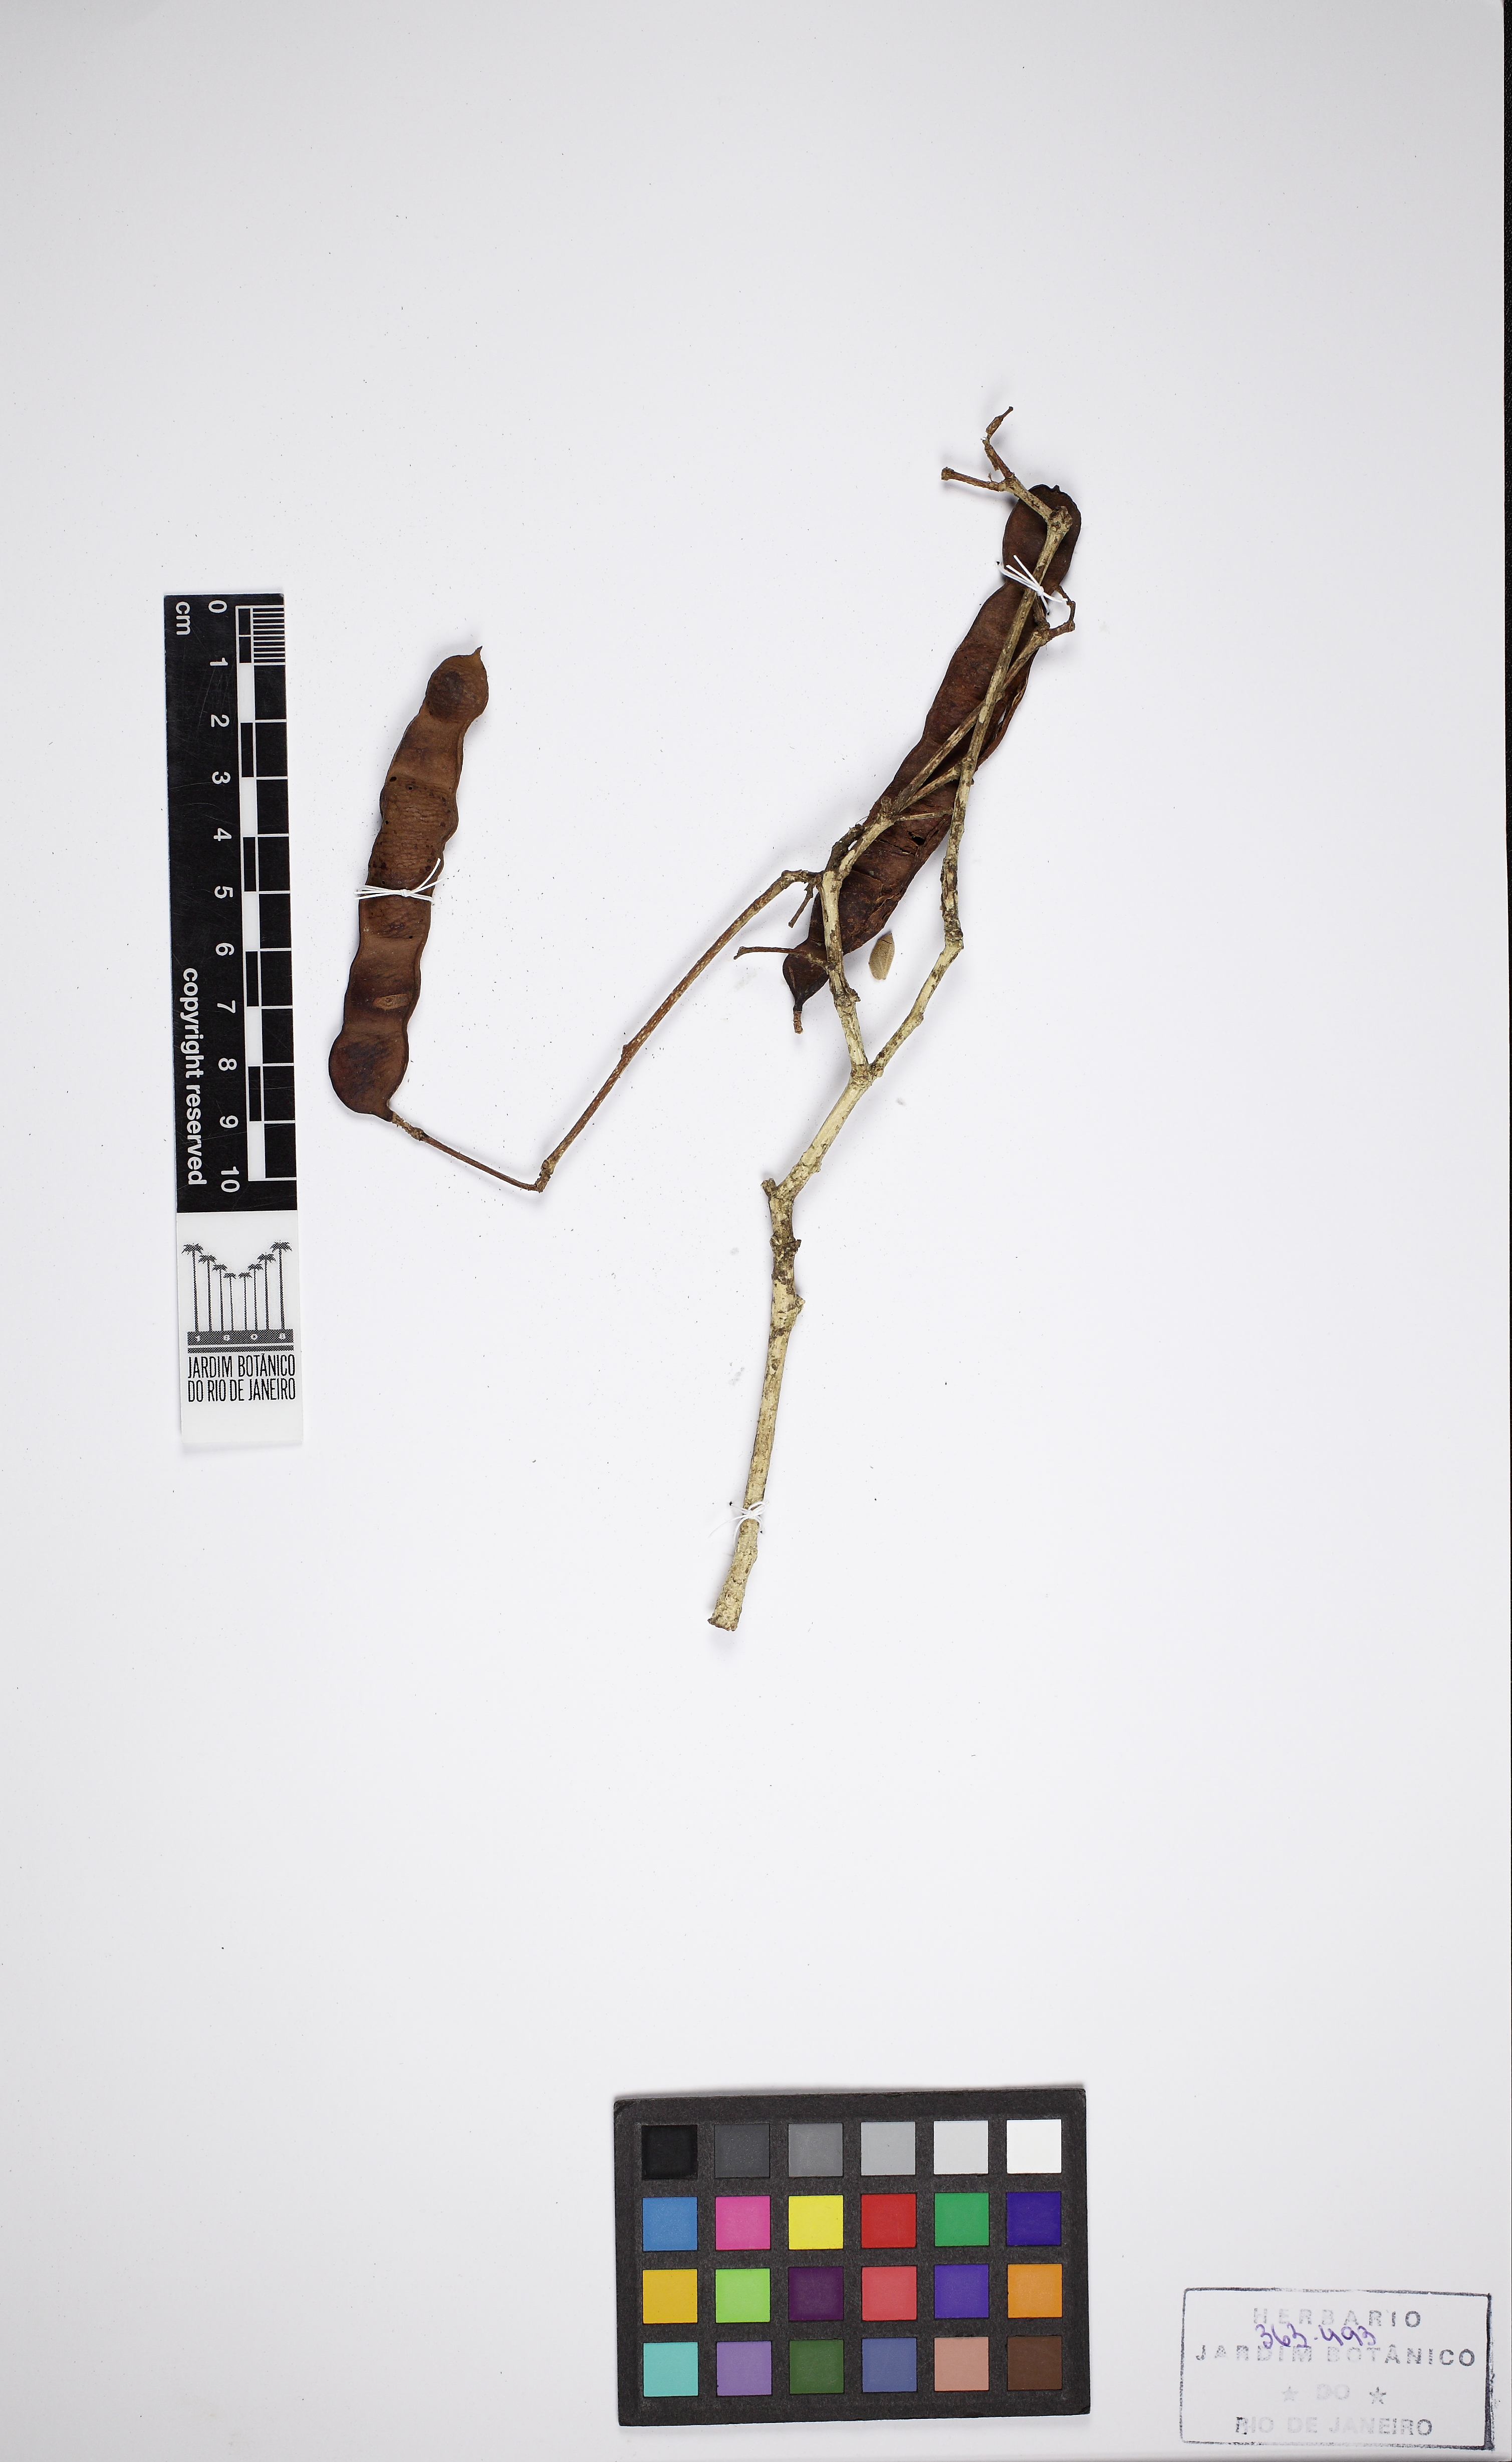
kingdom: Plantae
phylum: Tracheophyta
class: Magnoliopsida
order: Fabales
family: Fabaceae
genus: Inga
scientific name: Inga heterophylla
